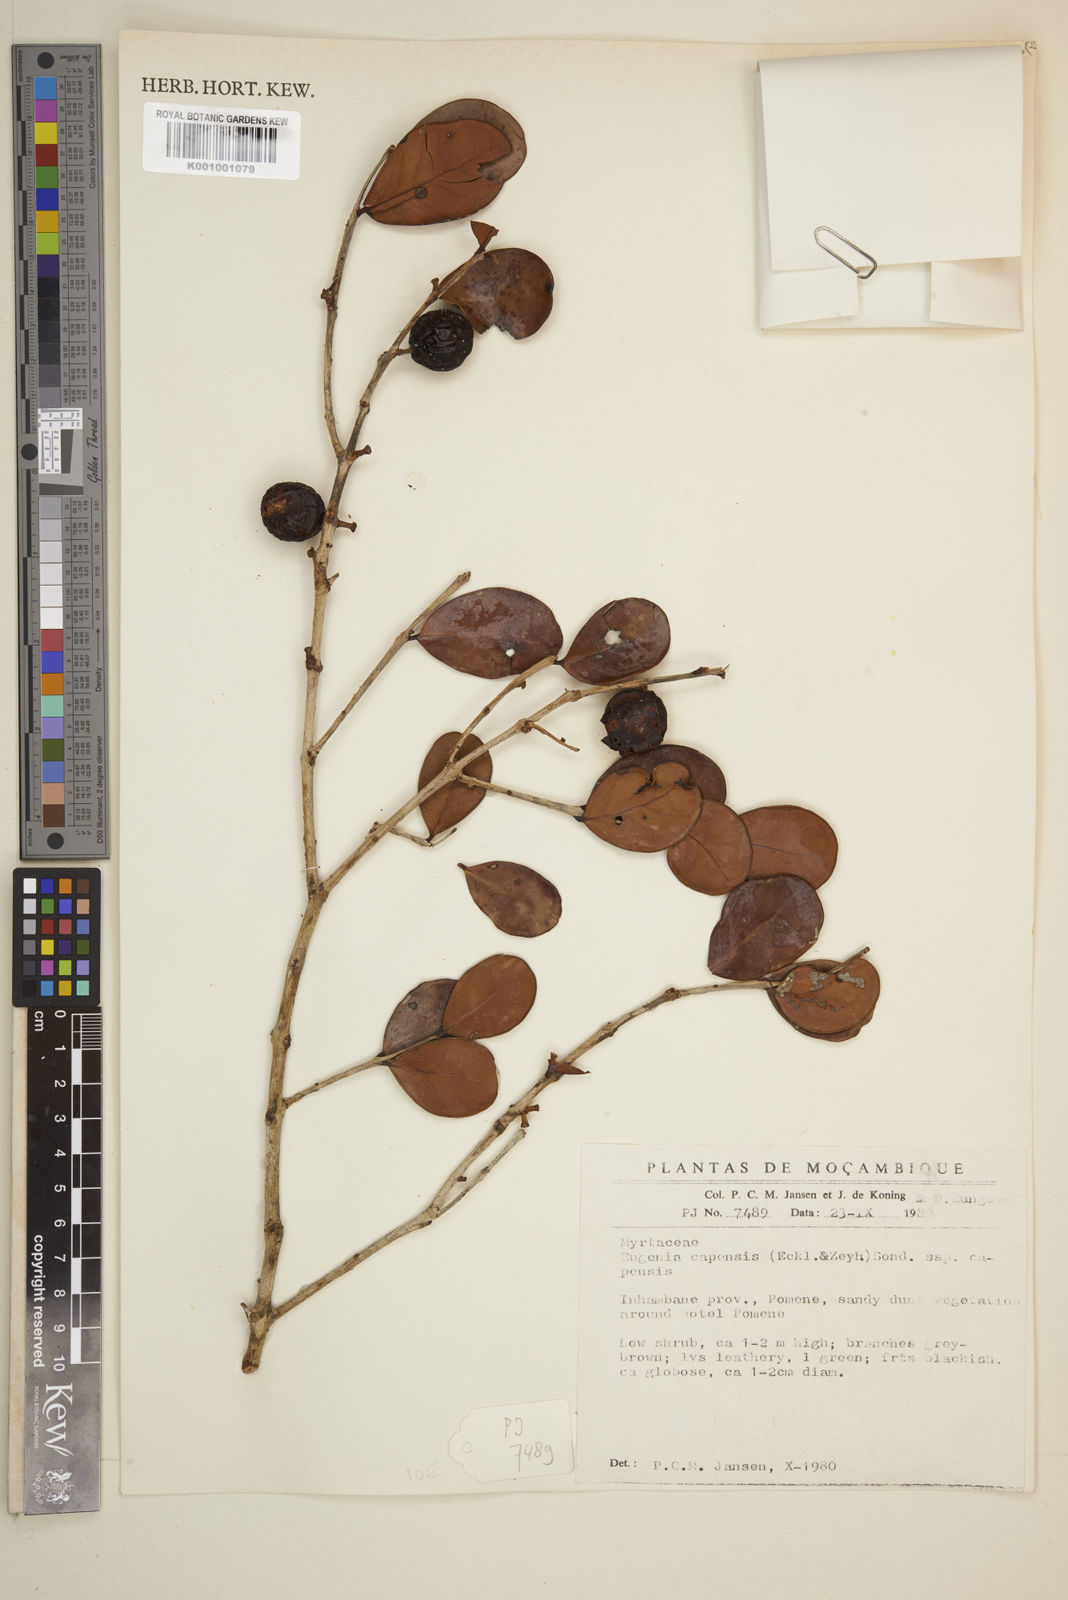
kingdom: Plantae
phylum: Tracheophyta
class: Magnoliopsida
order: Myrtales
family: Myrtaceae
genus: Eugenia
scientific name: Eugenia capensis
